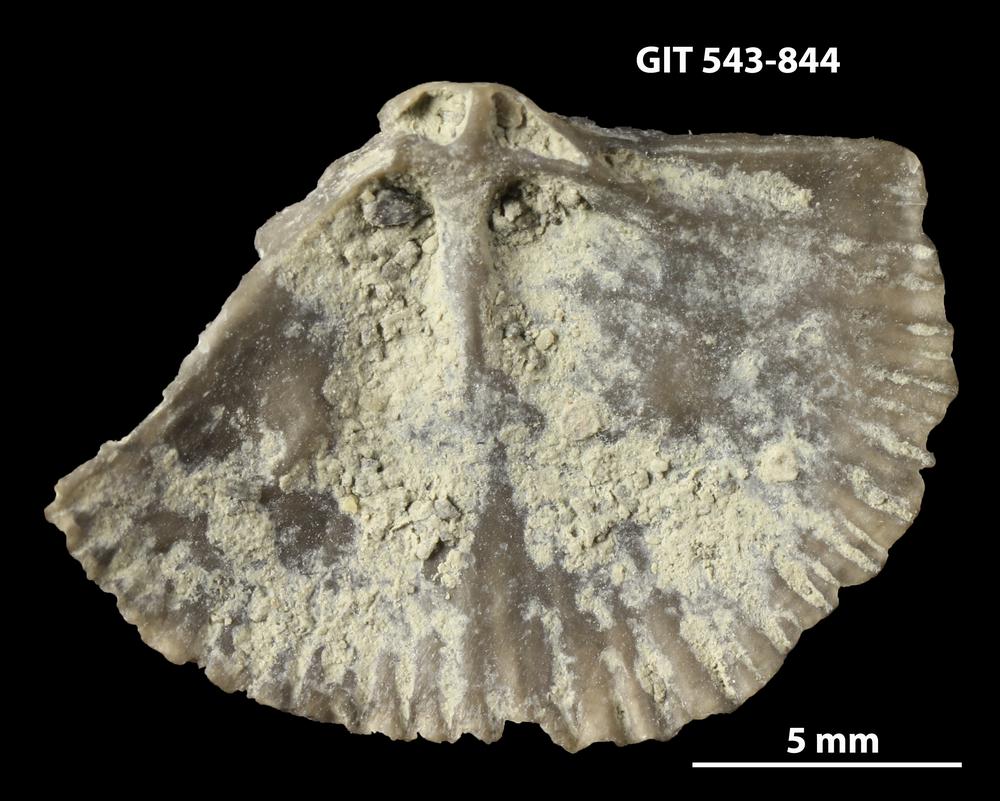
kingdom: Animalia
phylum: Brachiopoda
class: Rhynchonellata
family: Clitambonitidae
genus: Vellamo
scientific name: Vellamo oandoensis
